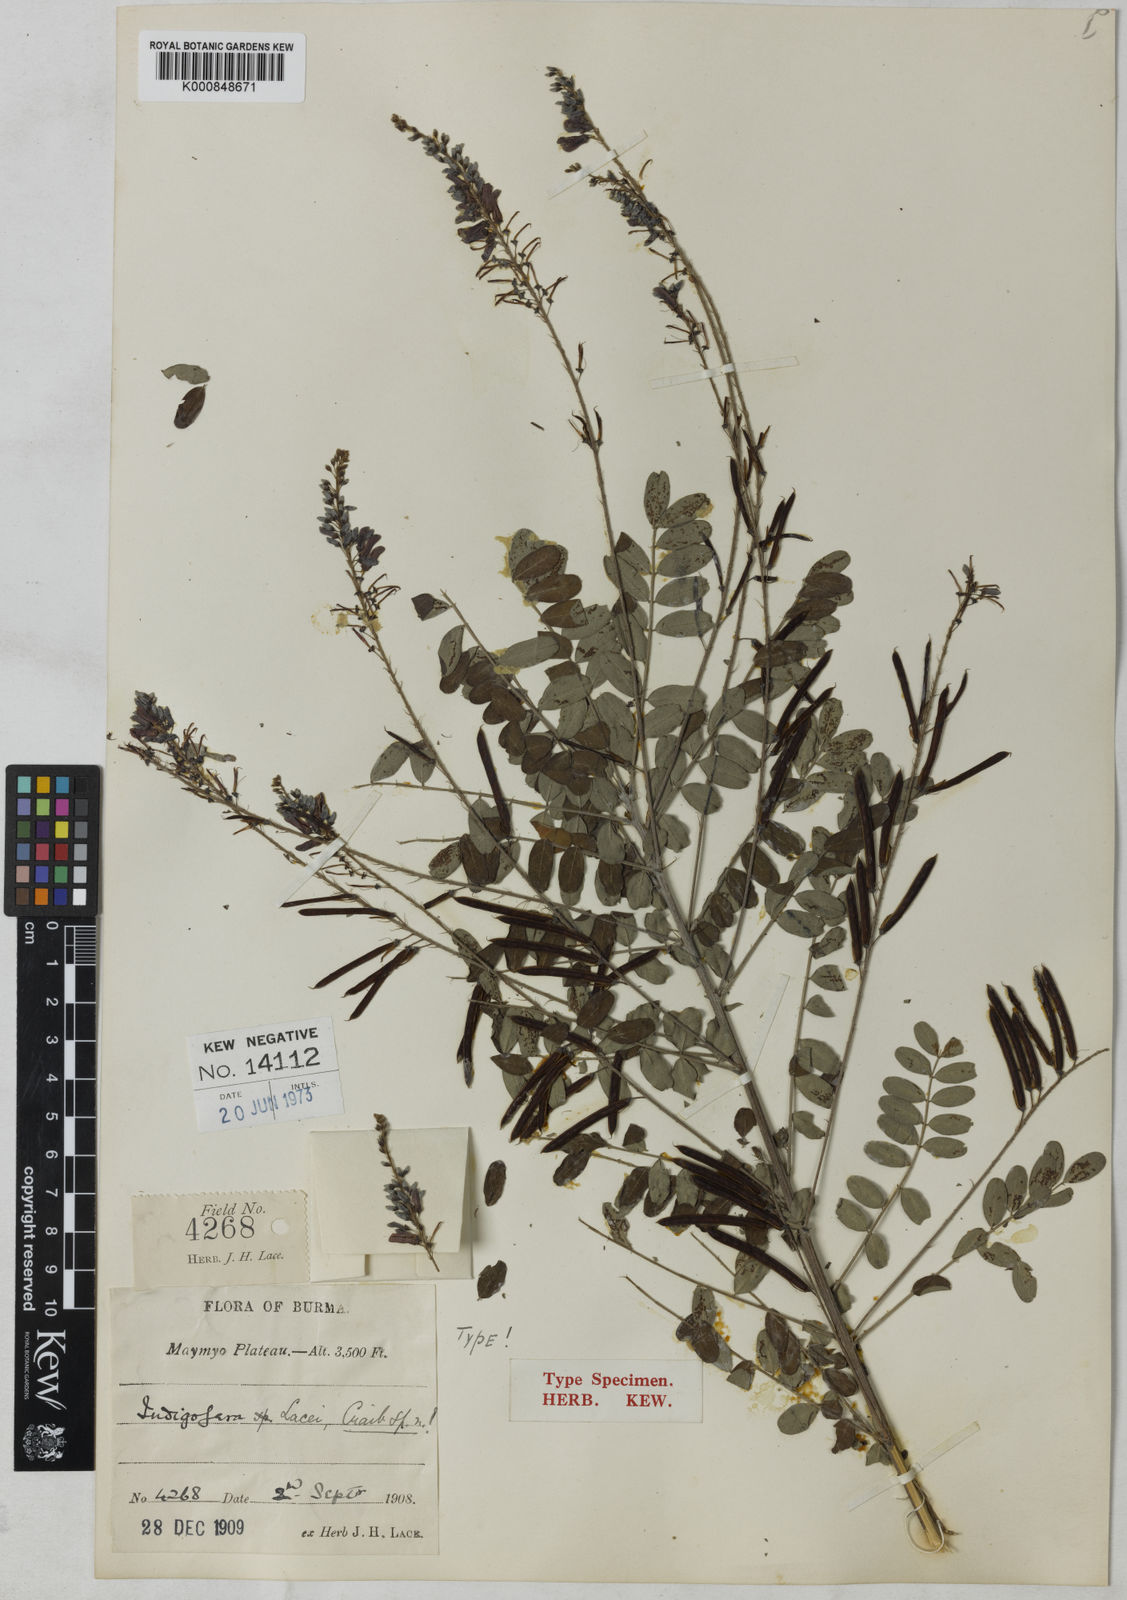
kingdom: Plantae
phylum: Tracheophyta
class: Magnoliopsida
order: Fabales
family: Fabaceae
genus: Indigofera
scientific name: Indigofera lacei
